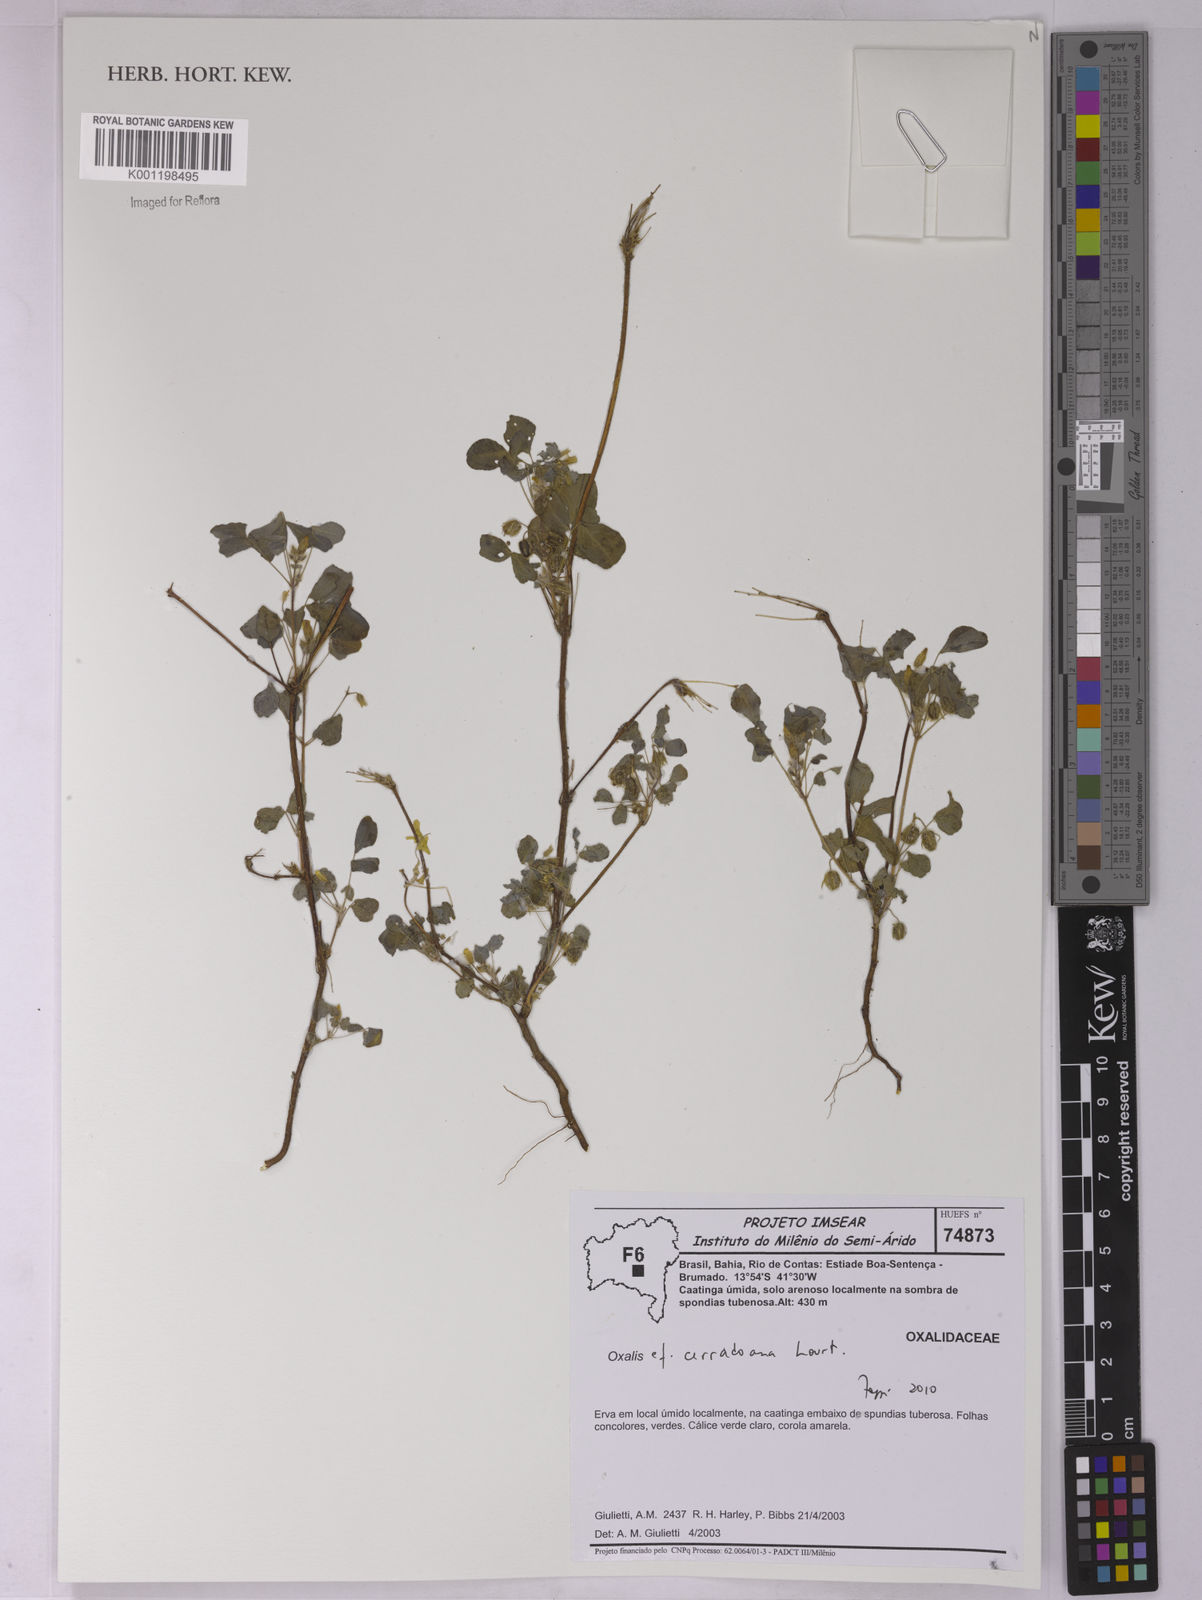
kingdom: Plantae
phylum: Tracheophyta
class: Magnoliopsida
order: Oxalidales
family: Oxalidaceae
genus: Oxalis
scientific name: Oxalis cerradoana
